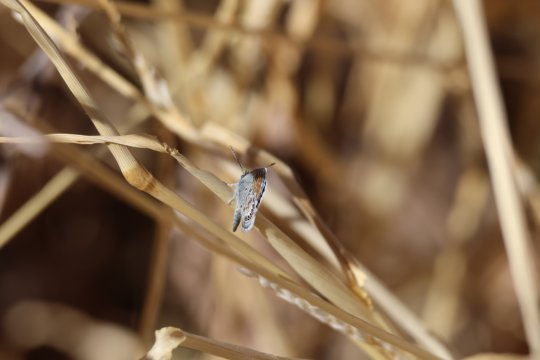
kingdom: Animalia
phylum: Arthropoda
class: Insecta
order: Lepidoptera
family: Lycaenidae
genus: Brephidium
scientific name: Brephidium exilis
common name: Western Pygmy-Blue
